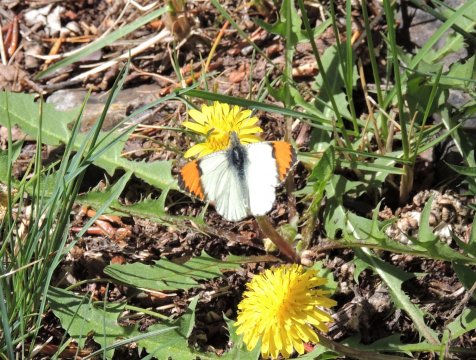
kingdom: Animalia
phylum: Arthropoda
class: Insecta
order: Lepidoptera
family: Pieridae
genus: Anthocharis
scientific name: Anthocharis julia
